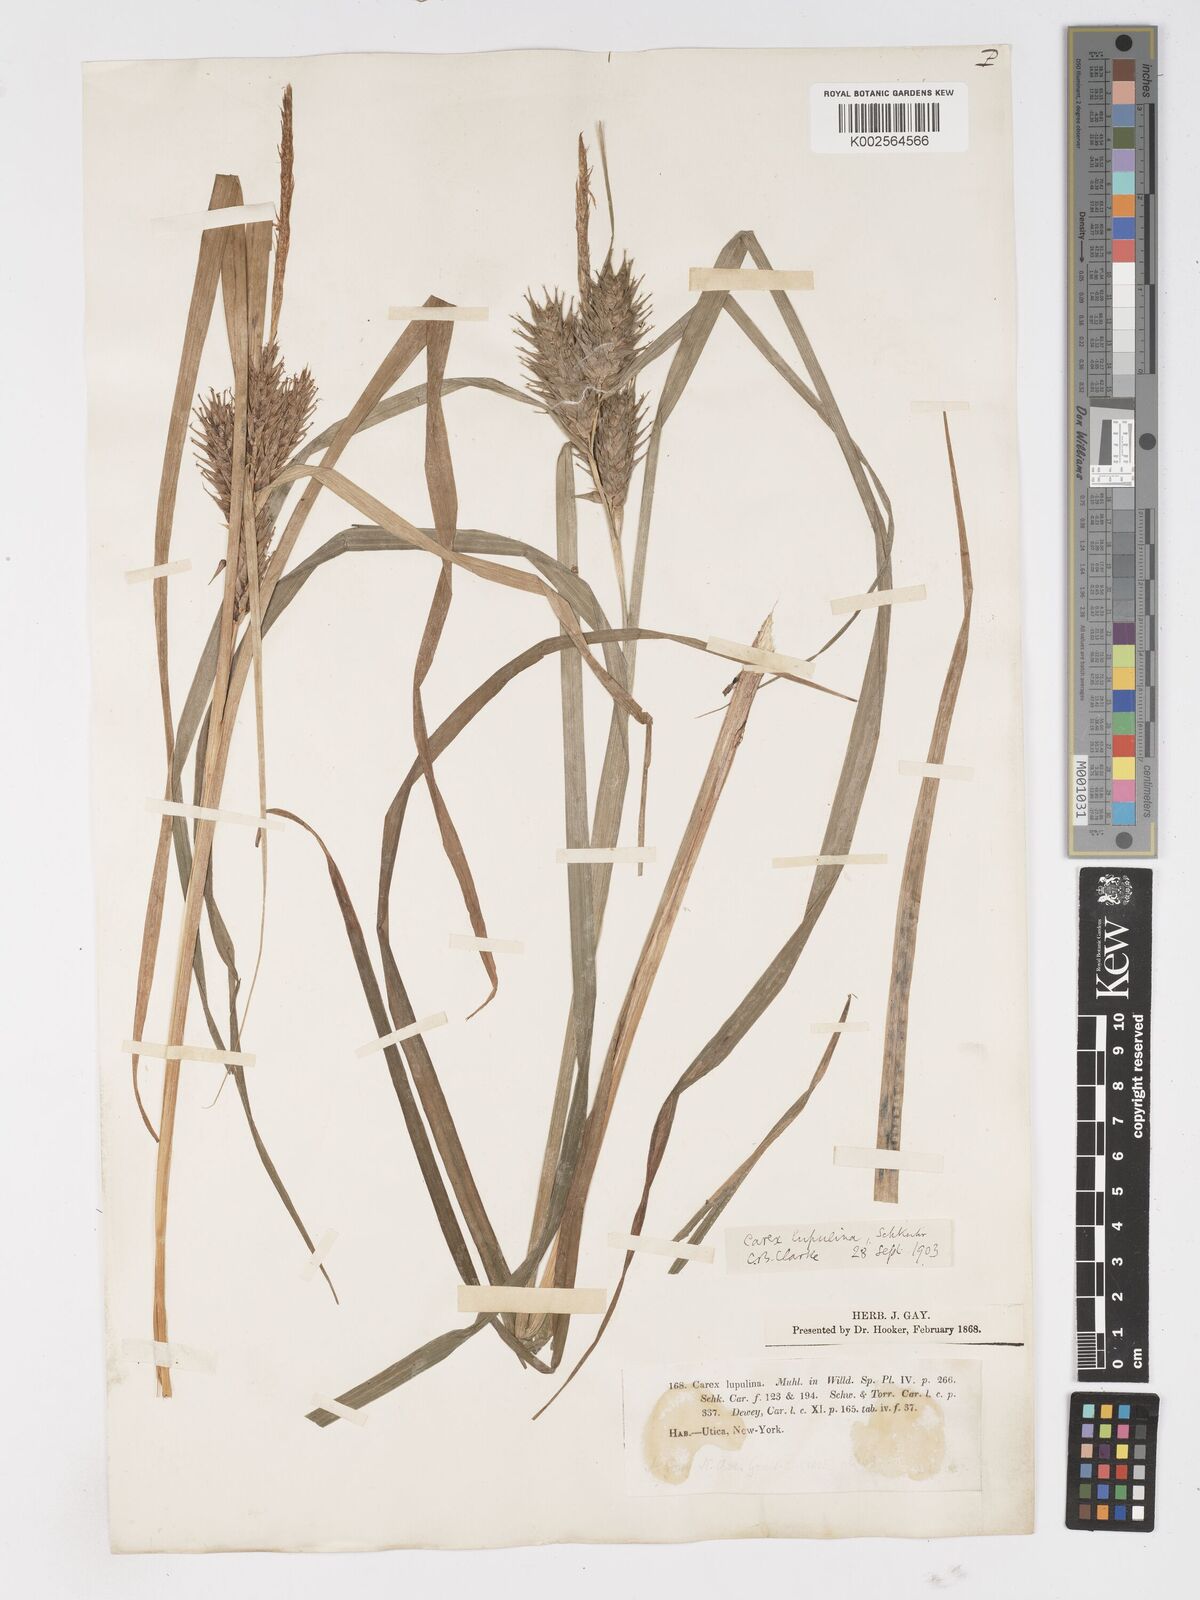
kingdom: Plantae
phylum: Tracheophyta
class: Liliopsida
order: Poales
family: Cyperaceae
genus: Carex
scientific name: Carex lupulina
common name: Hop sedge
